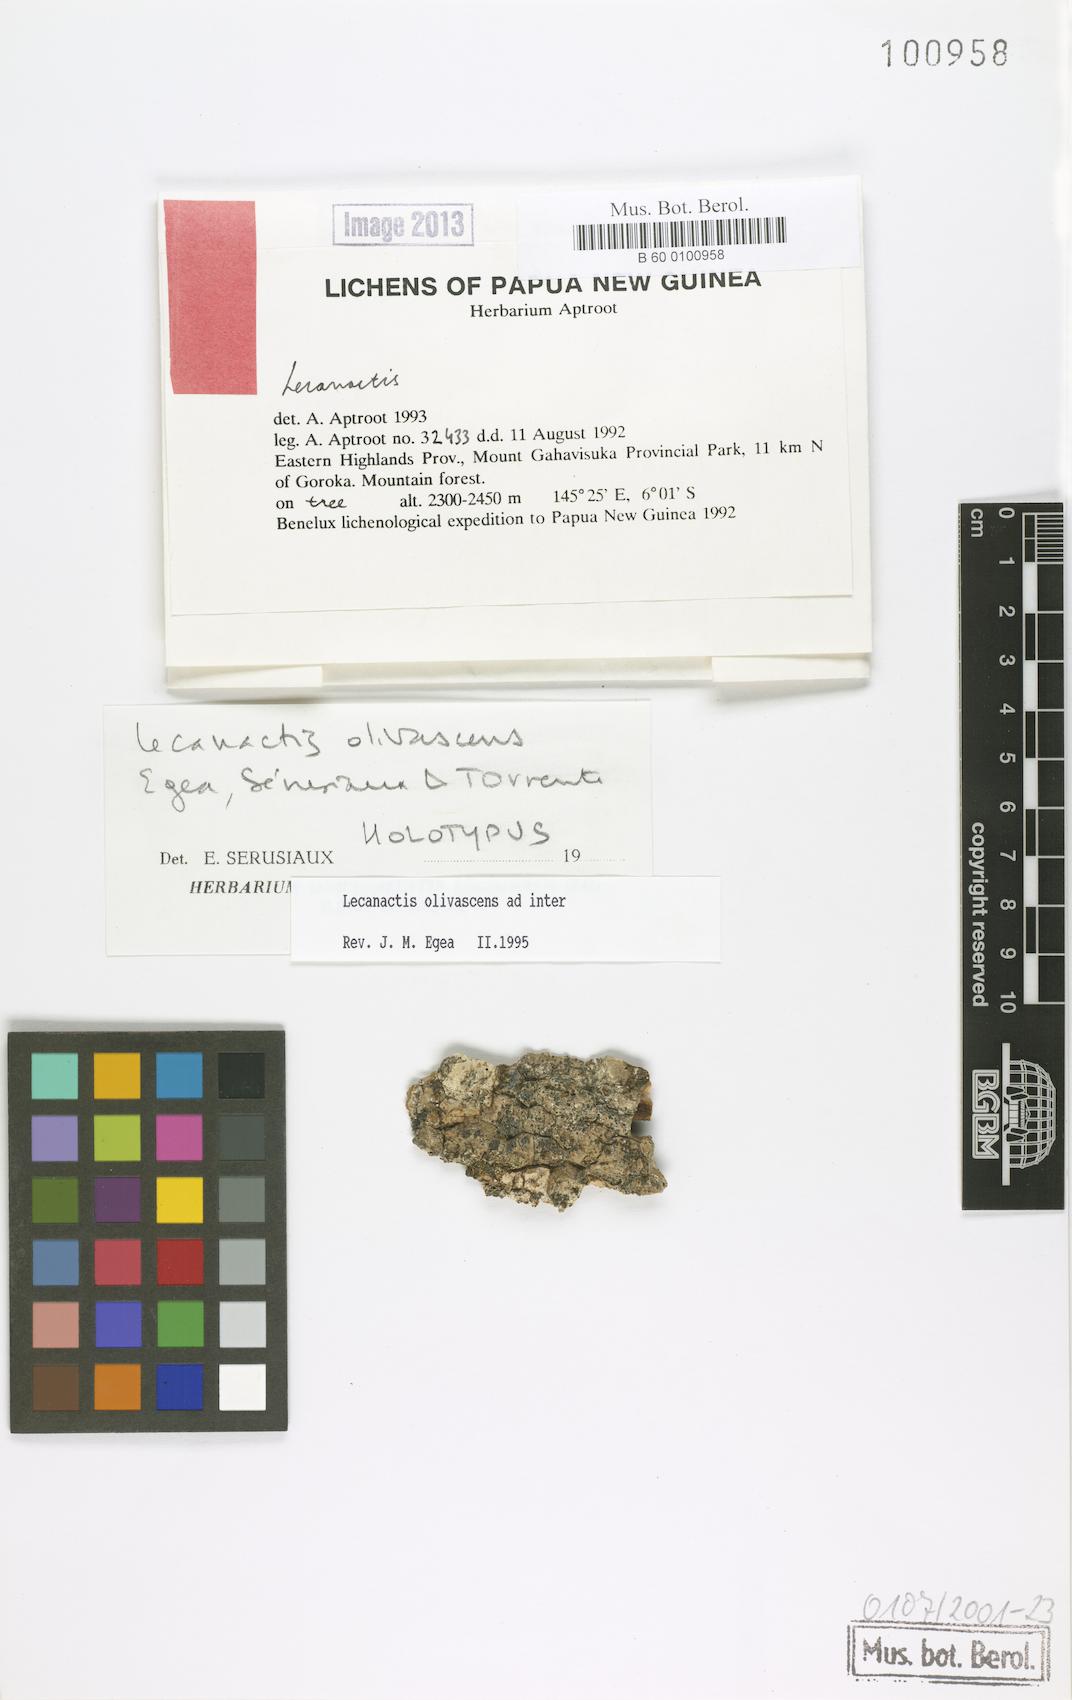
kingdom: Fungi
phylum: Ascomycota
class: Arthoniomycetes
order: Arthoniales
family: Roccellaceae
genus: Lecanactis
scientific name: Lecanactis
